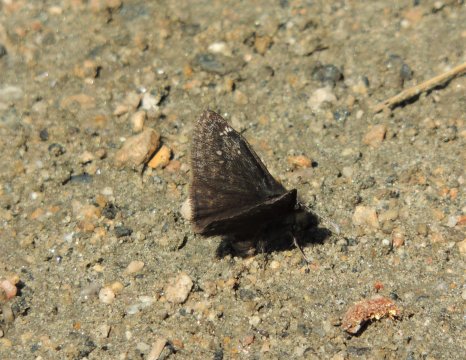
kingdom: Animalia
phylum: Arthropoda
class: Insecta
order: Lepidoptera
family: Hesperiidae
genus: Gesta
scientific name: Gesta
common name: Persius Duskywing
